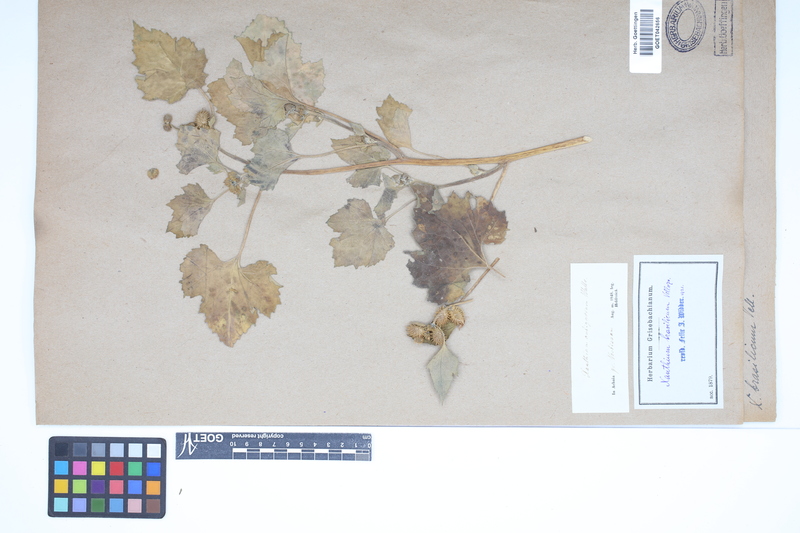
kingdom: Plantae
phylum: Tracheophyta
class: Magnoliopsida
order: Asterales
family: Asteraceae
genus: Xanthium
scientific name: Xanthium strumarium
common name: Rough cocklebur
